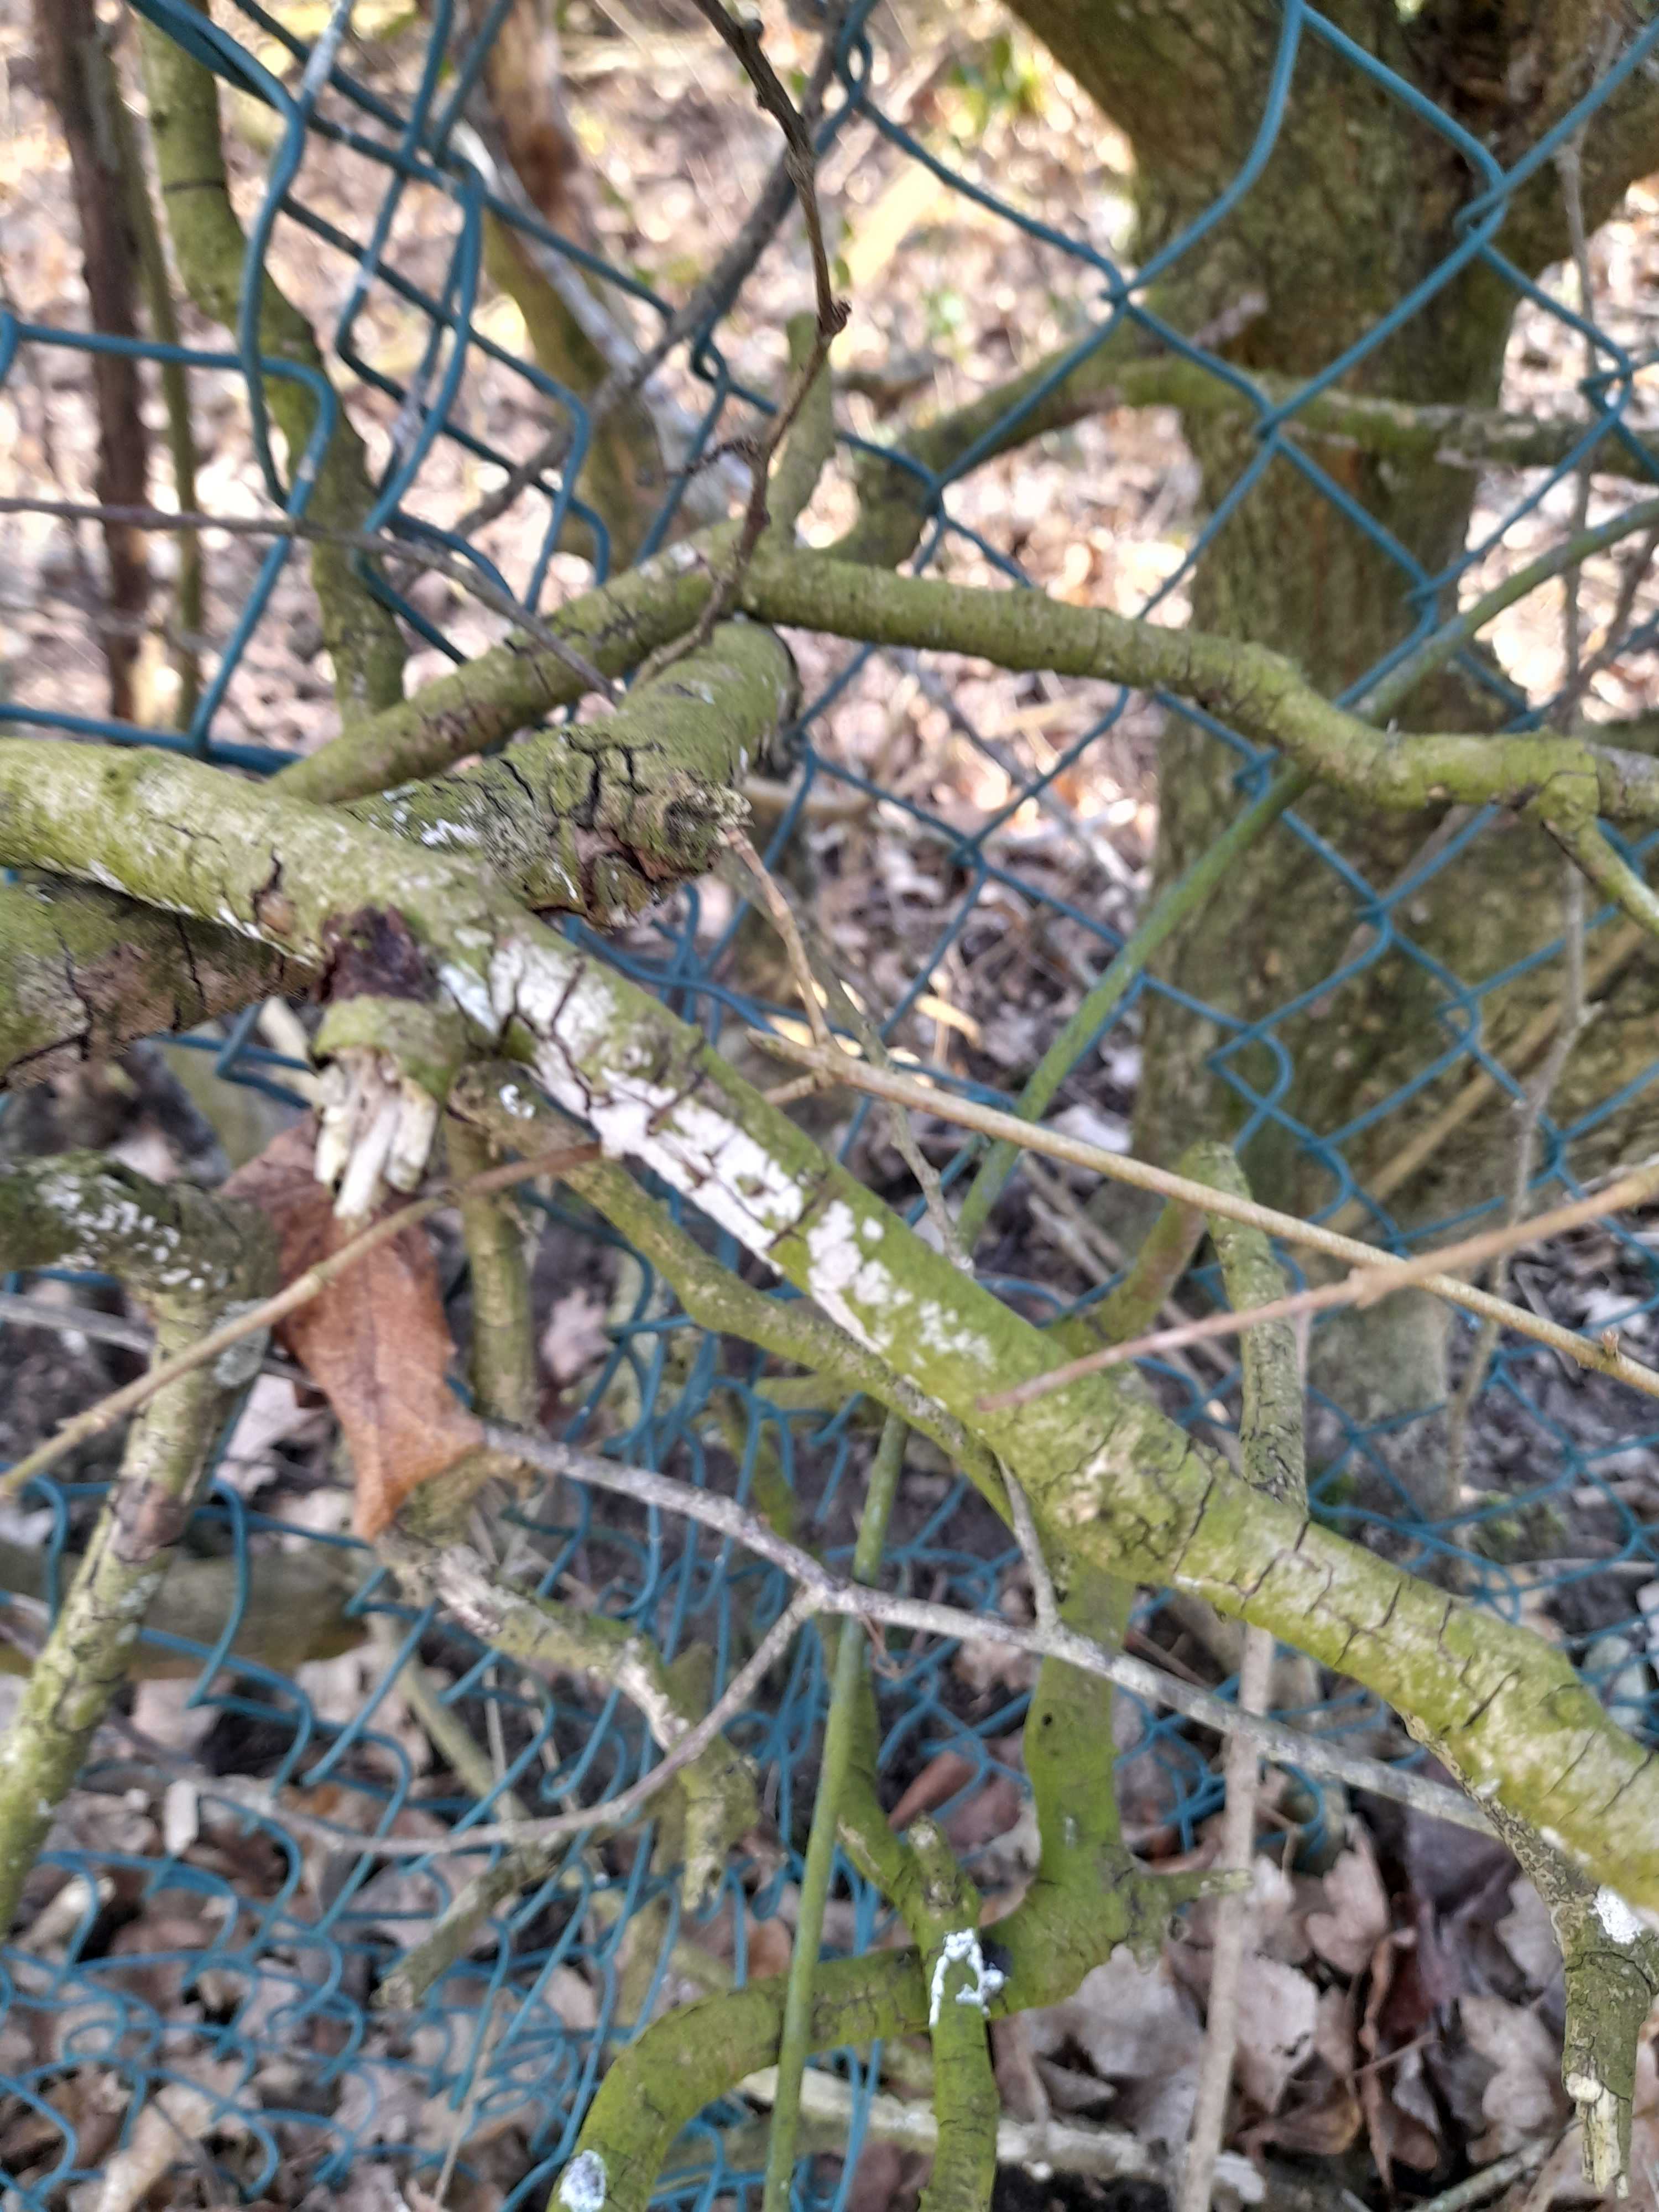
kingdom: Fungi
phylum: Basidiomycota
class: Agaricomycetes
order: Corticiales
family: Corticiaceae
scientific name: Corticiaceae
